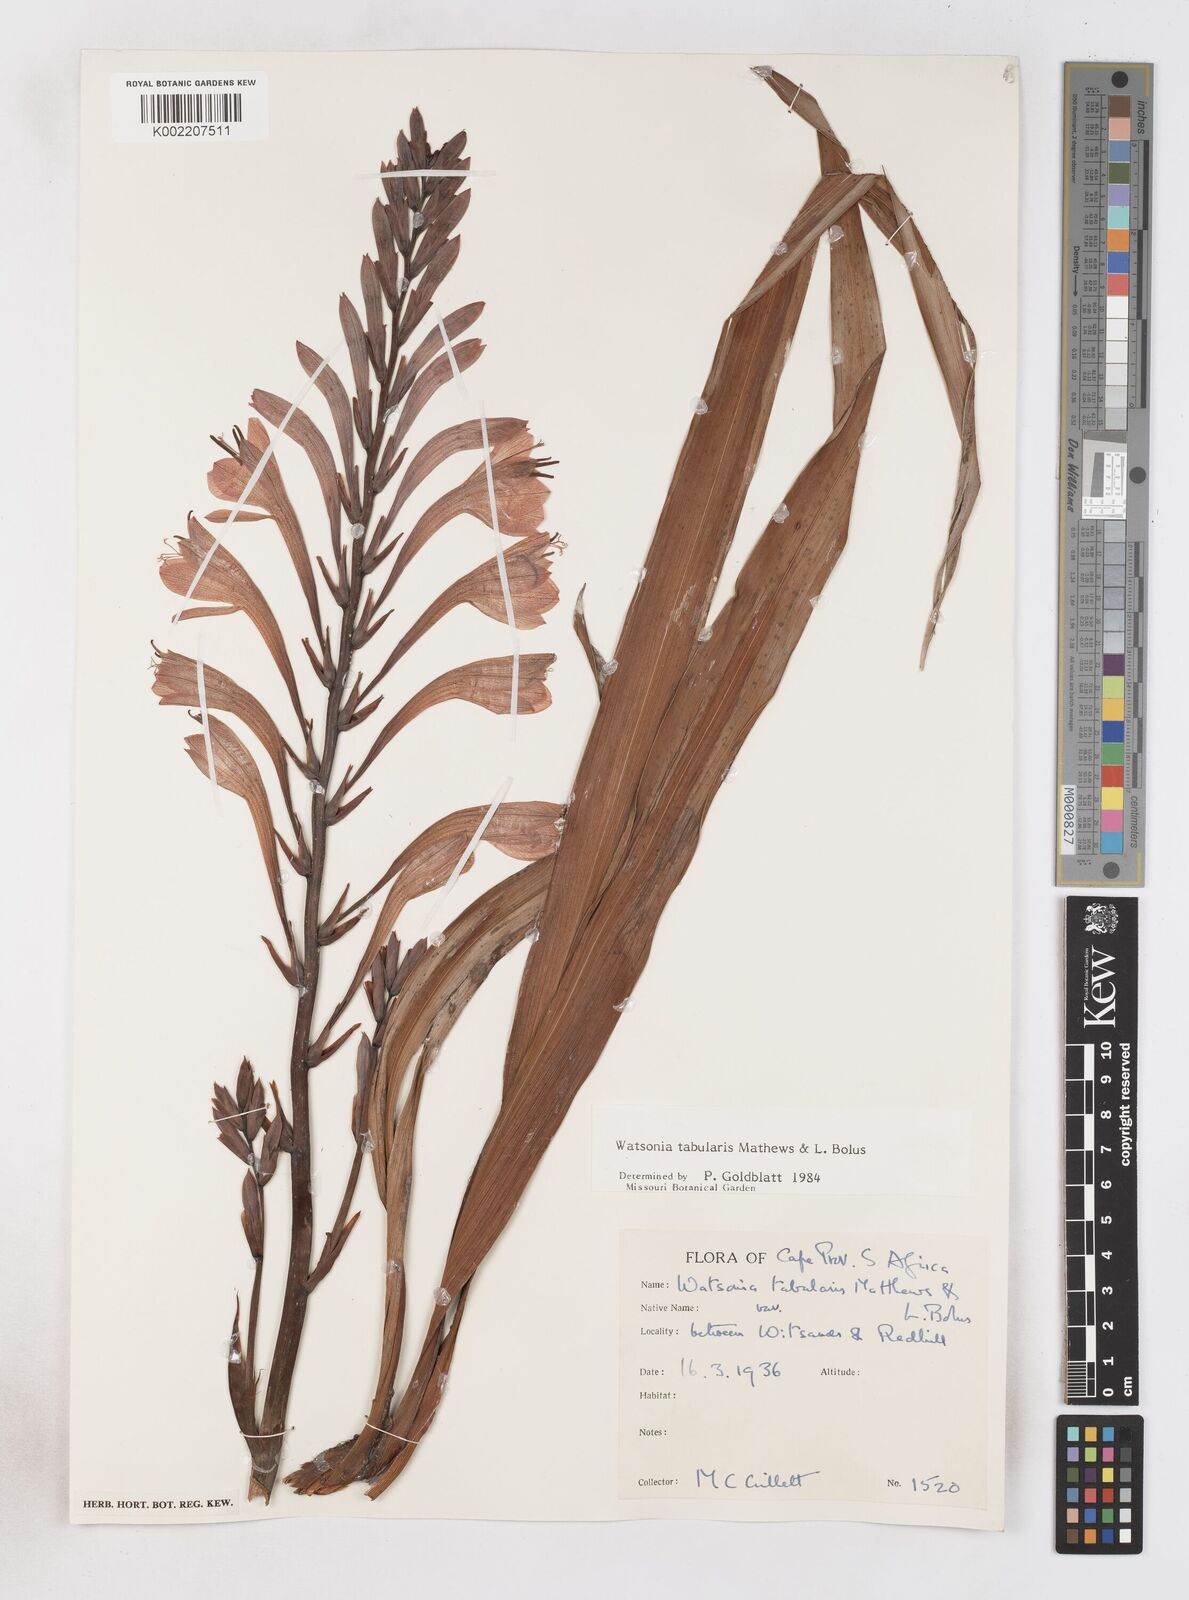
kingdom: Plantae
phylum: Tracheophyta
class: Liliopsida
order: Asparagales
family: Iridaceae
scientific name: Iridaceae
